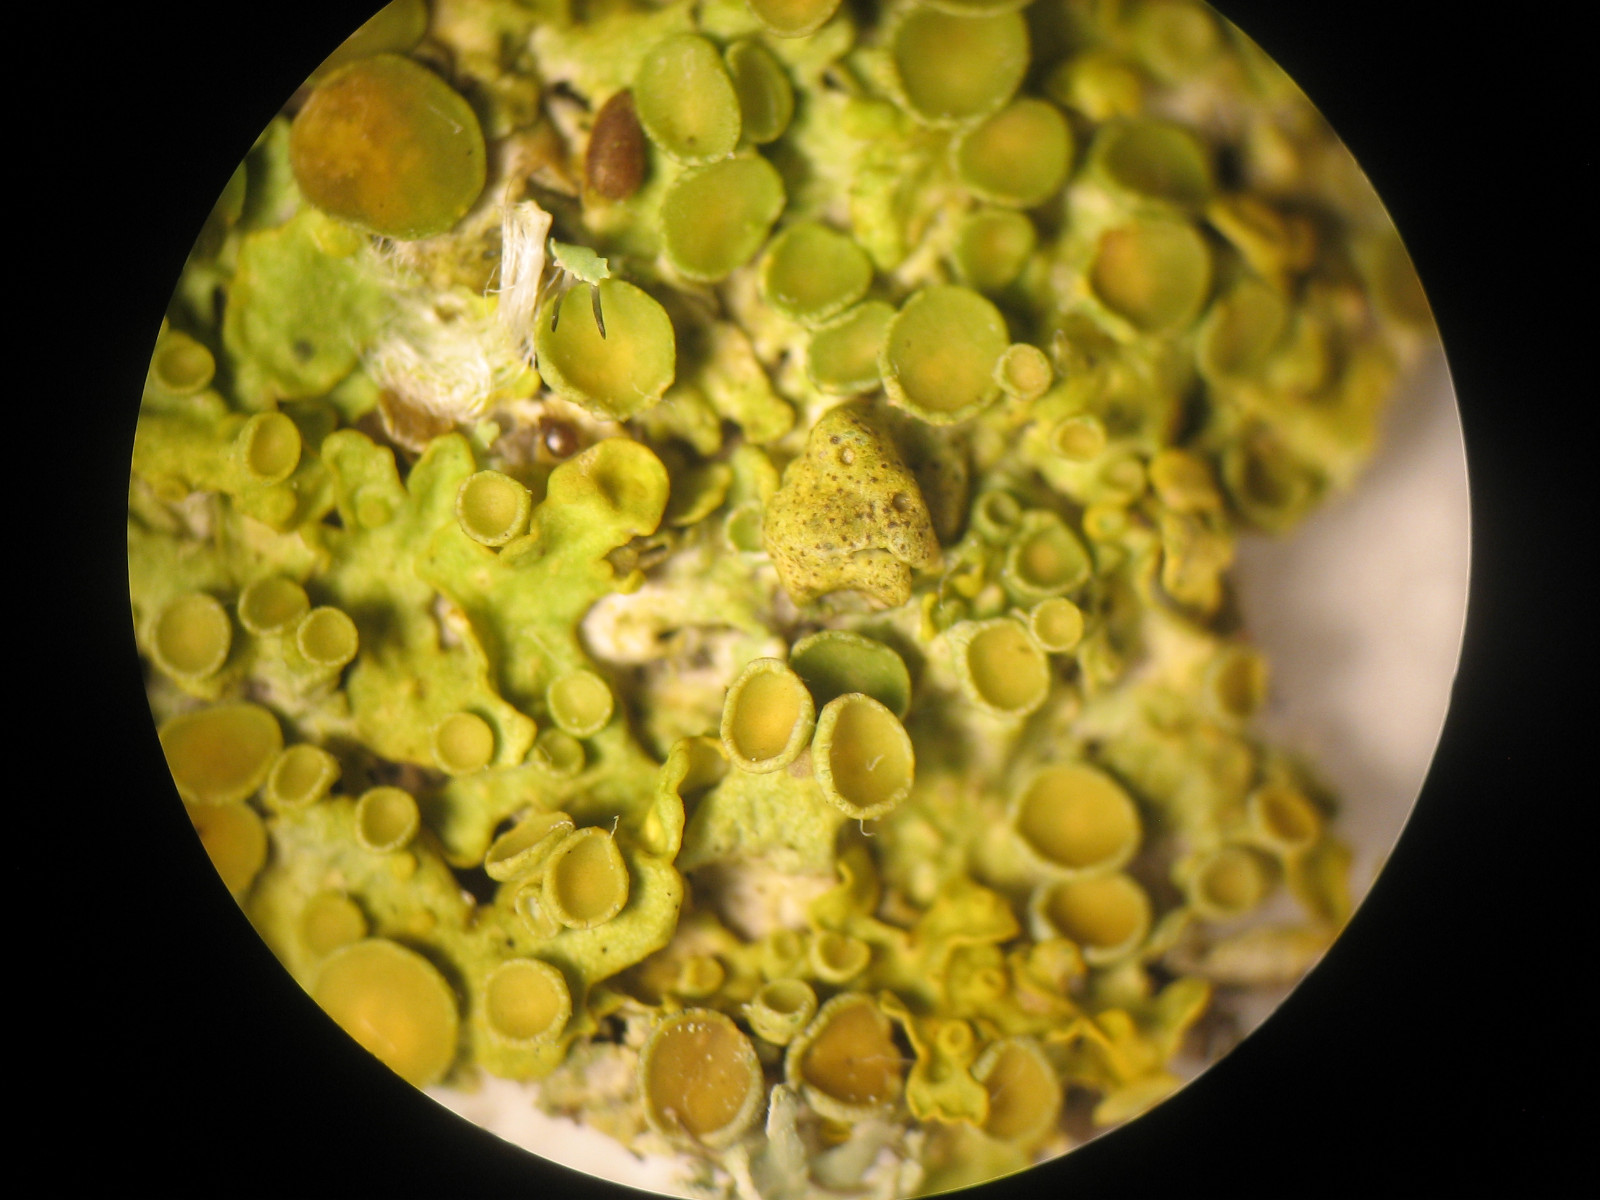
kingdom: Fungi
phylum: Ascomycota
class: Eurotiomycetes
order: Verrucariales
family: Verrucariaceae
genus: Telogalla
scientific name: Telogalla olivieri
